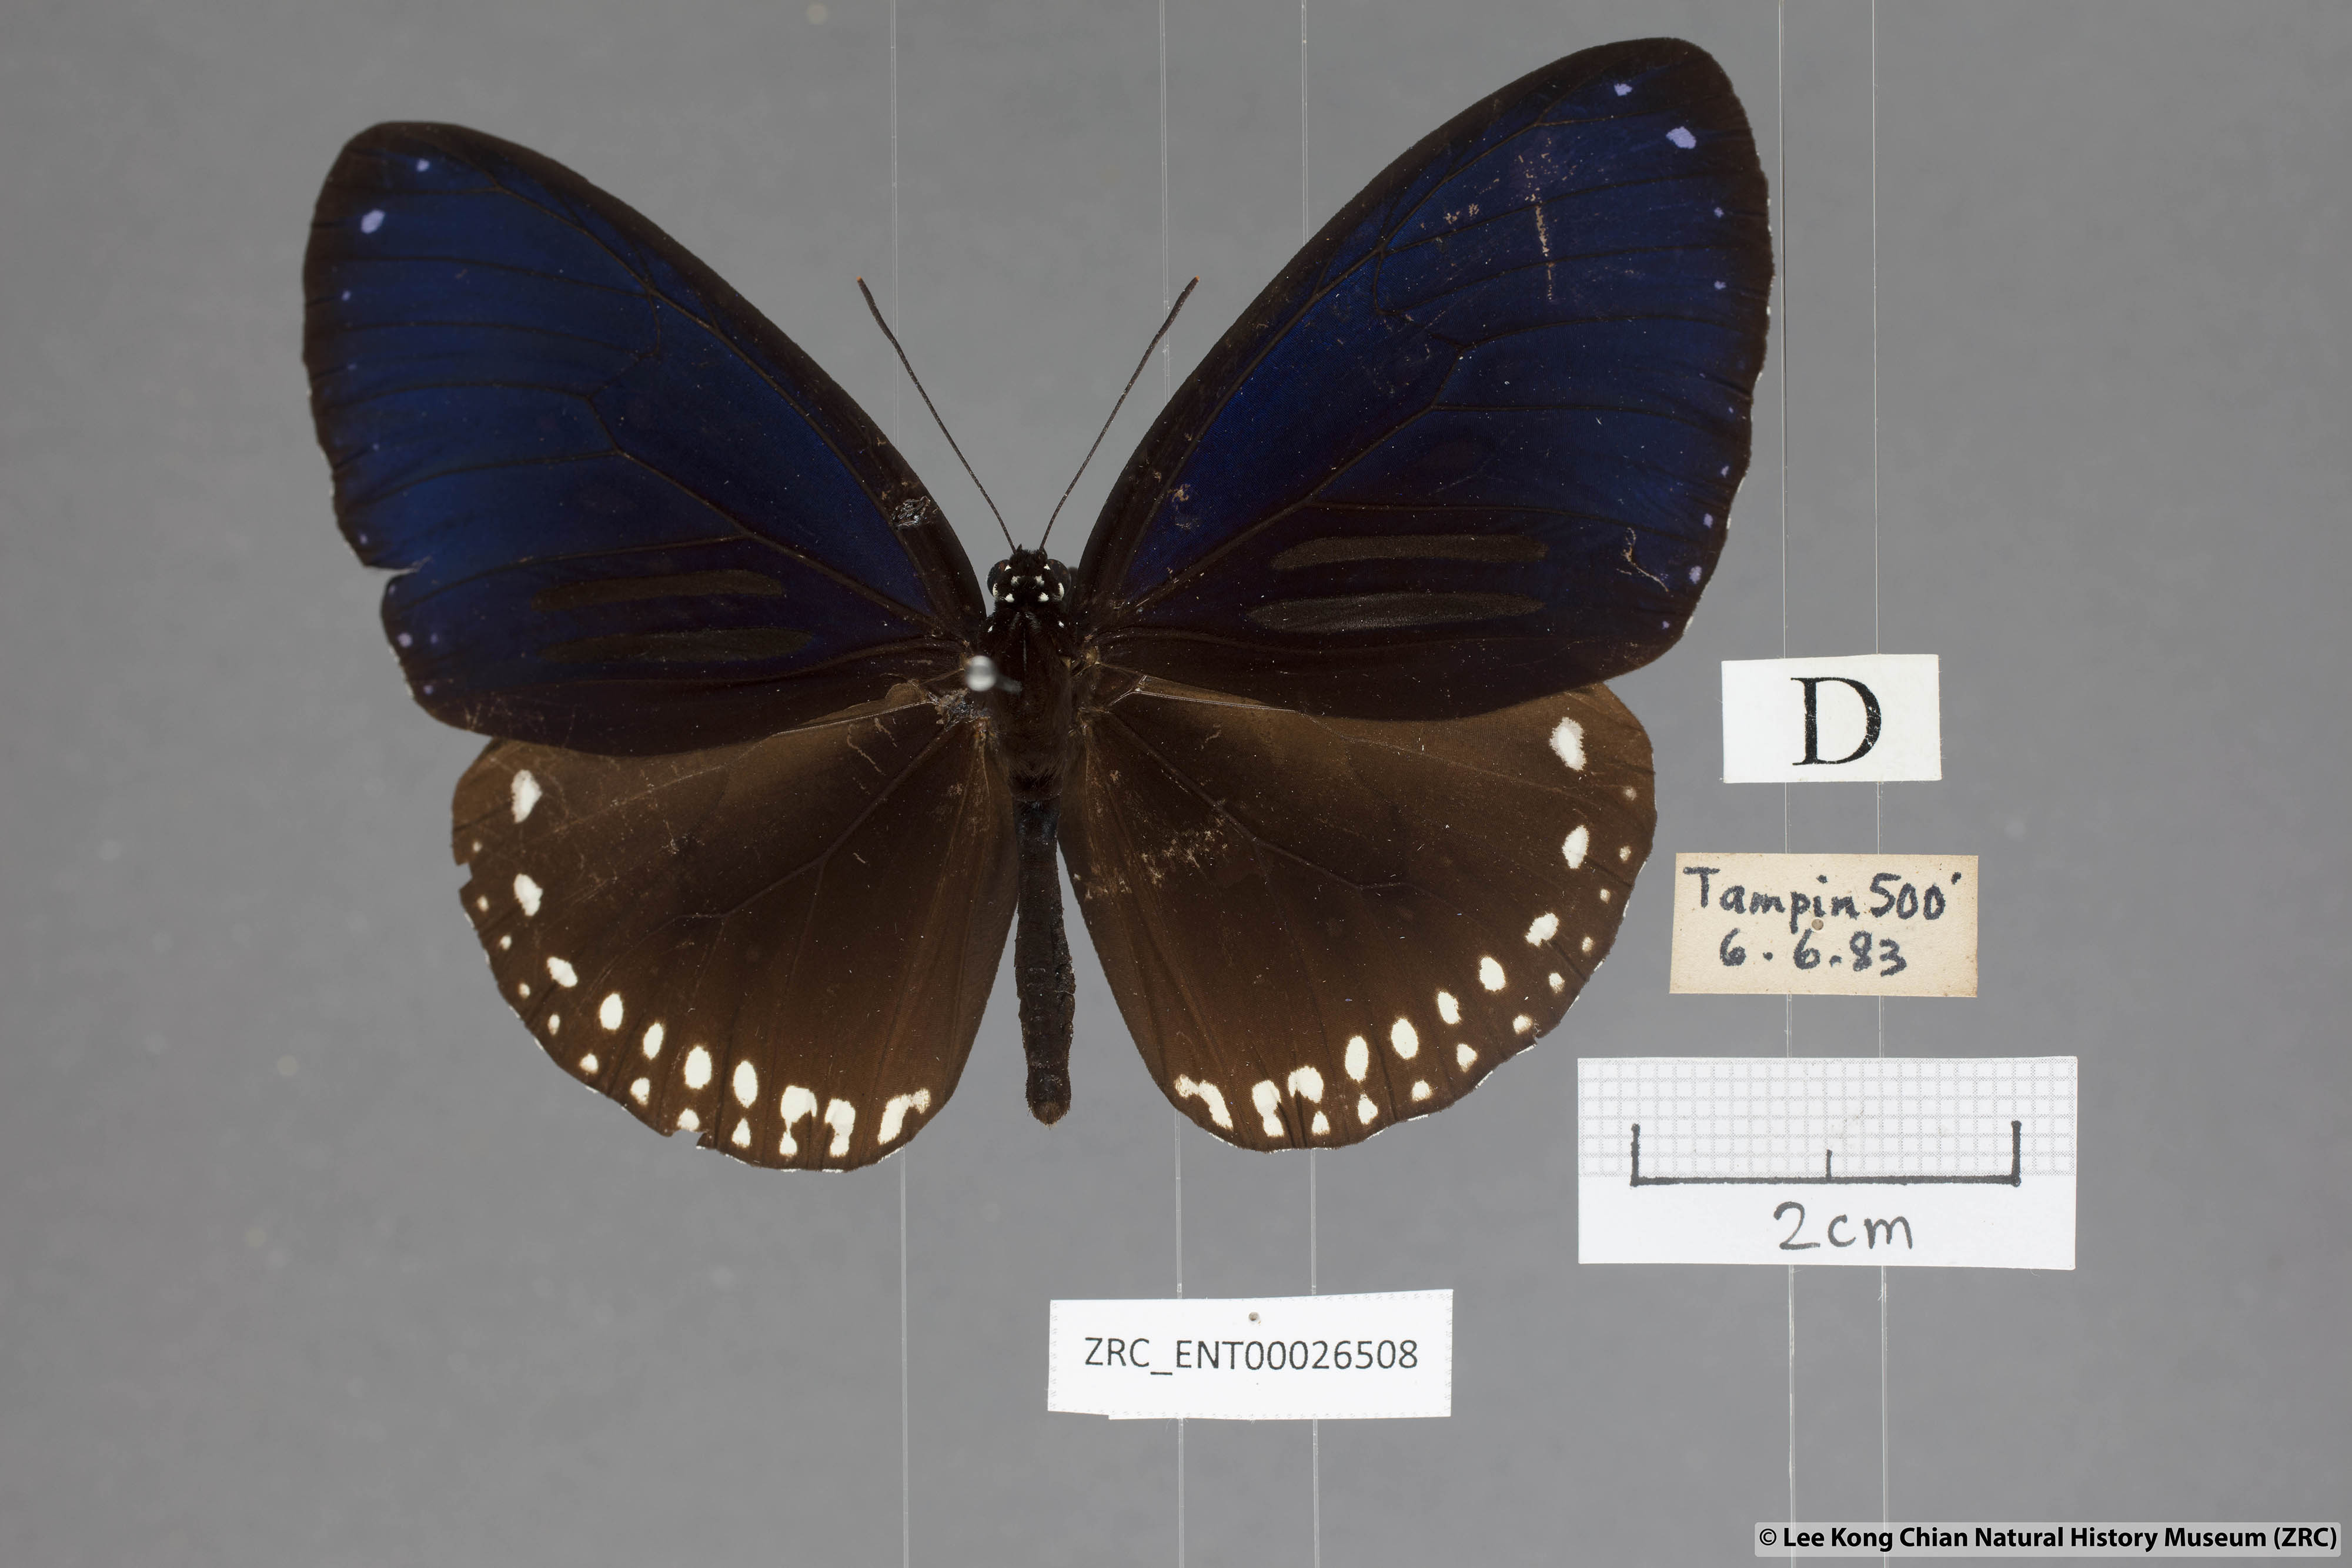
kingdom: Animalia
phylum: Arthropoda
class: Insecta
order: Lepidoptera
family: Nymphalidae
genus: Euploea
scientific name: Euploea sylvester
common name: Double-branded crow butterfly
